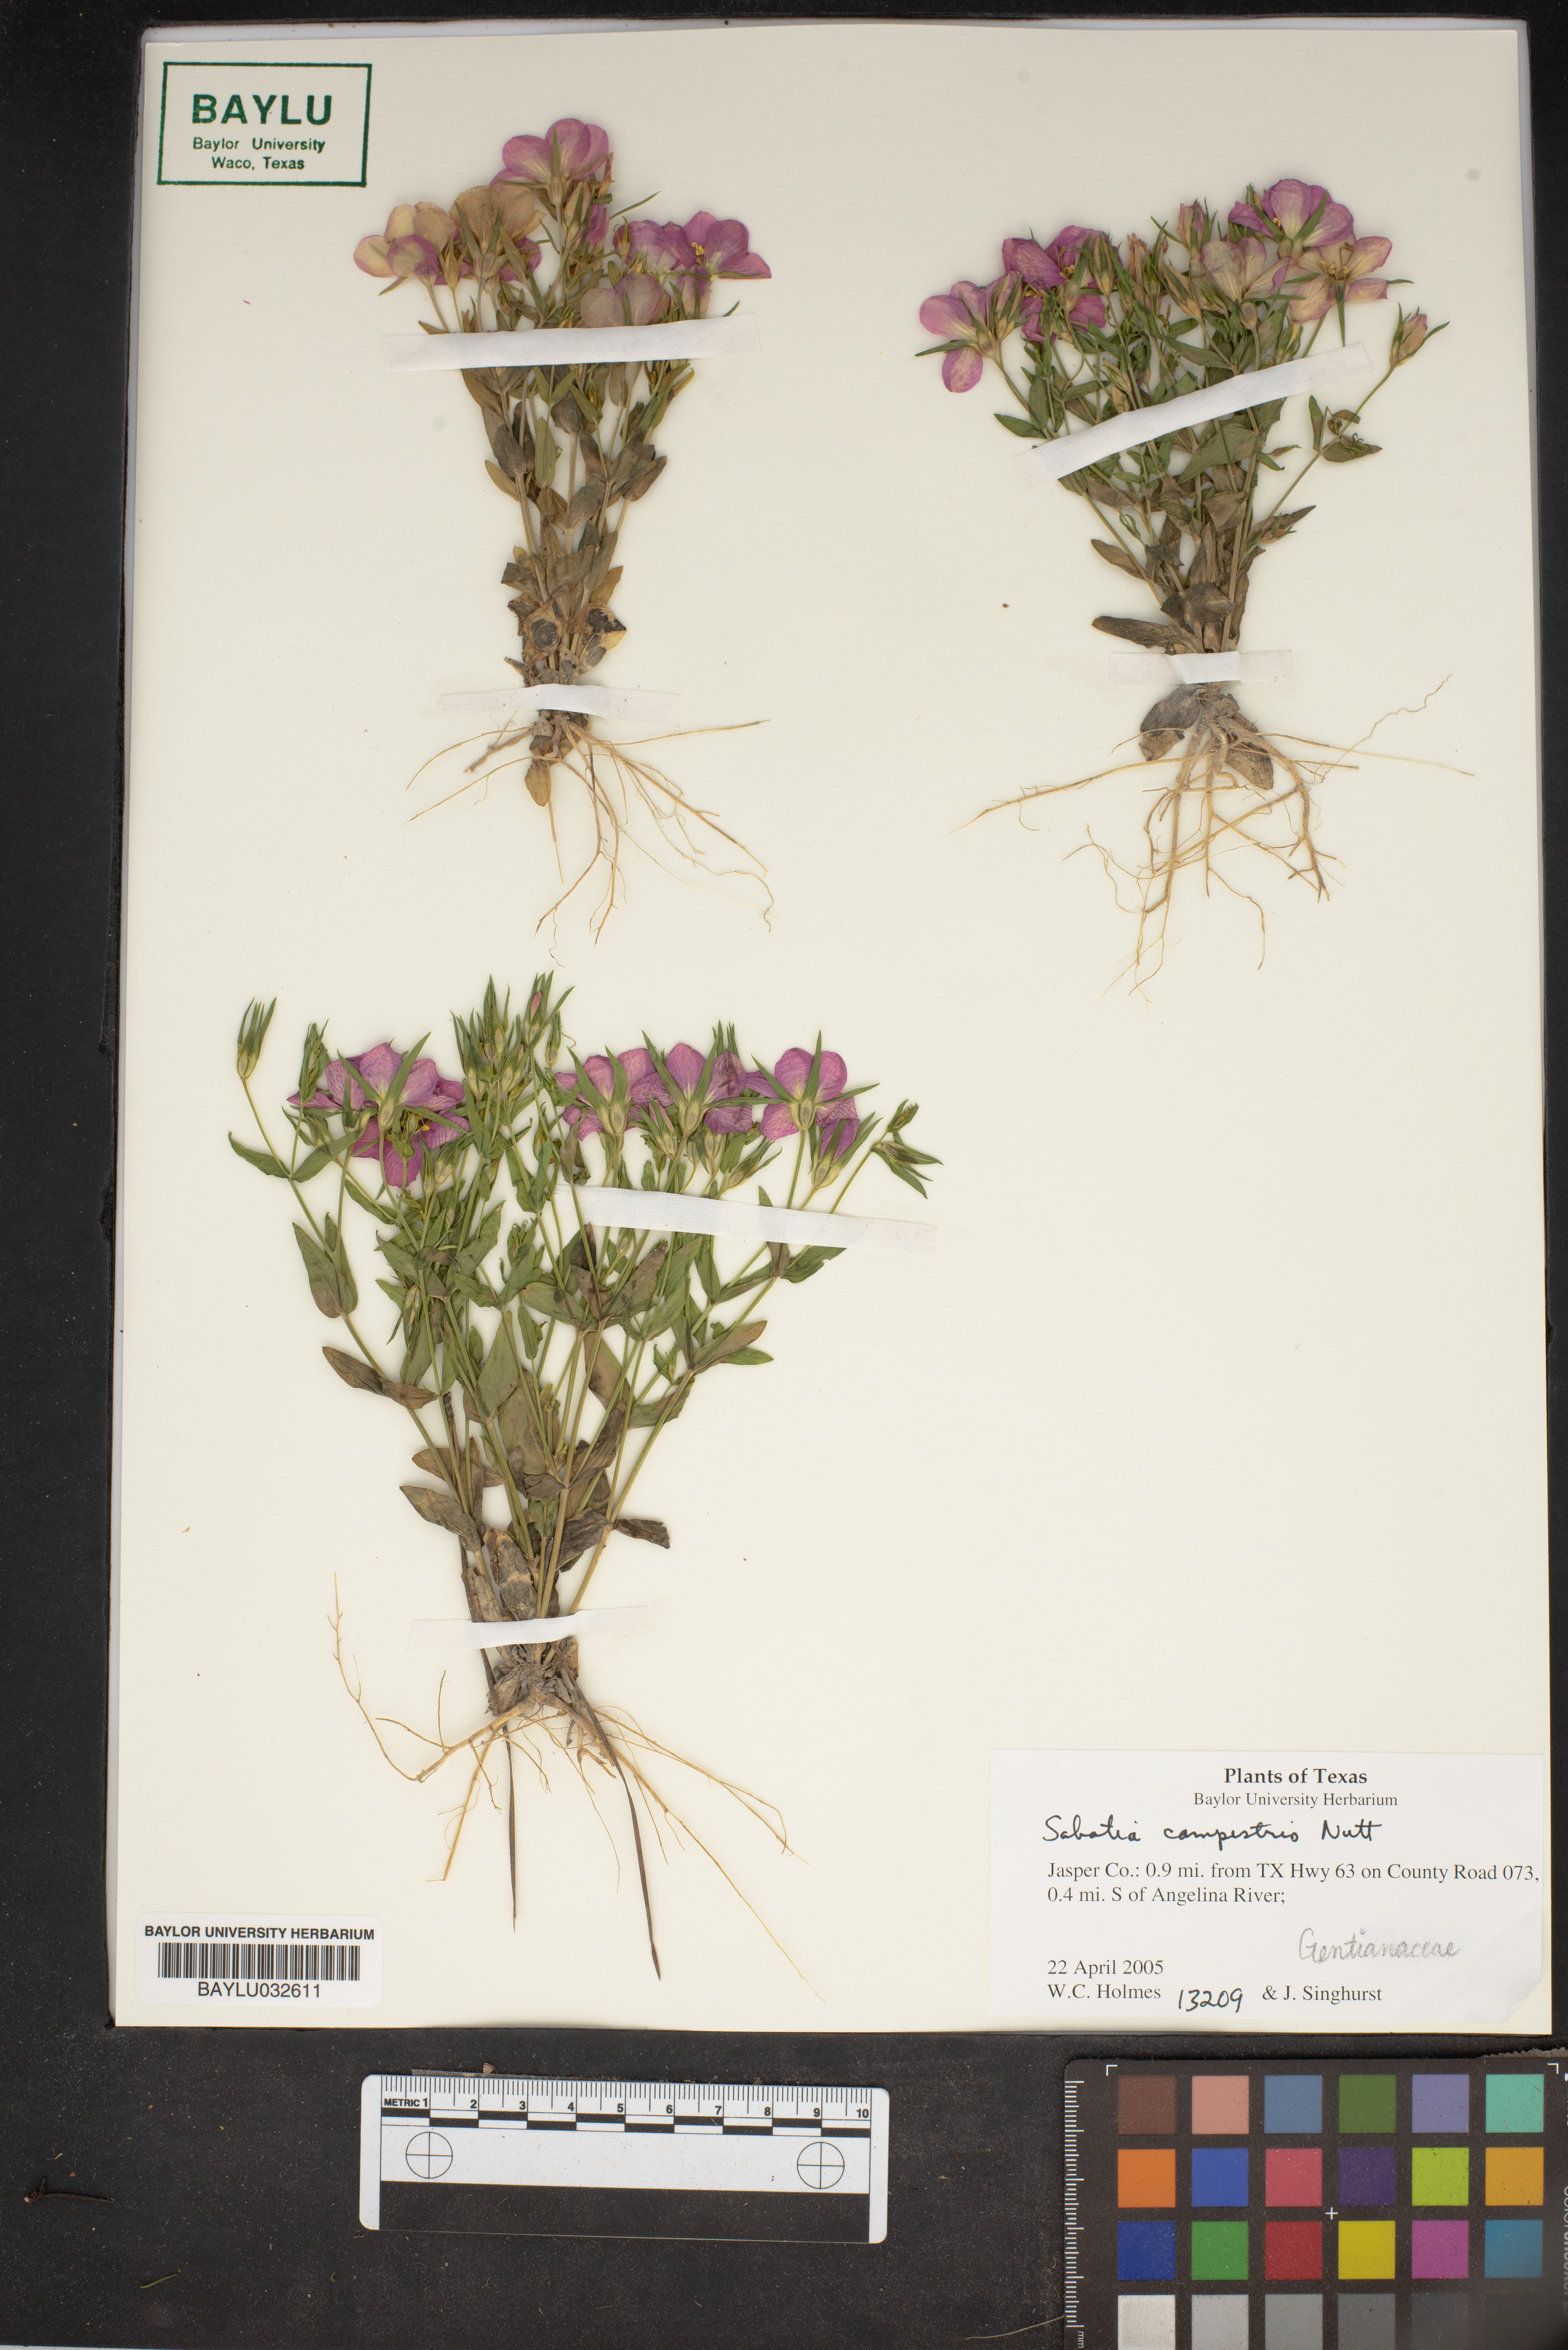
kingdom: Plantae
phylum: Tracheophyta
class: Magnoliopsida
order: Gentianales
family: Gentianaceae
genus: Sabatia
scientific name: Sabatia campestris
